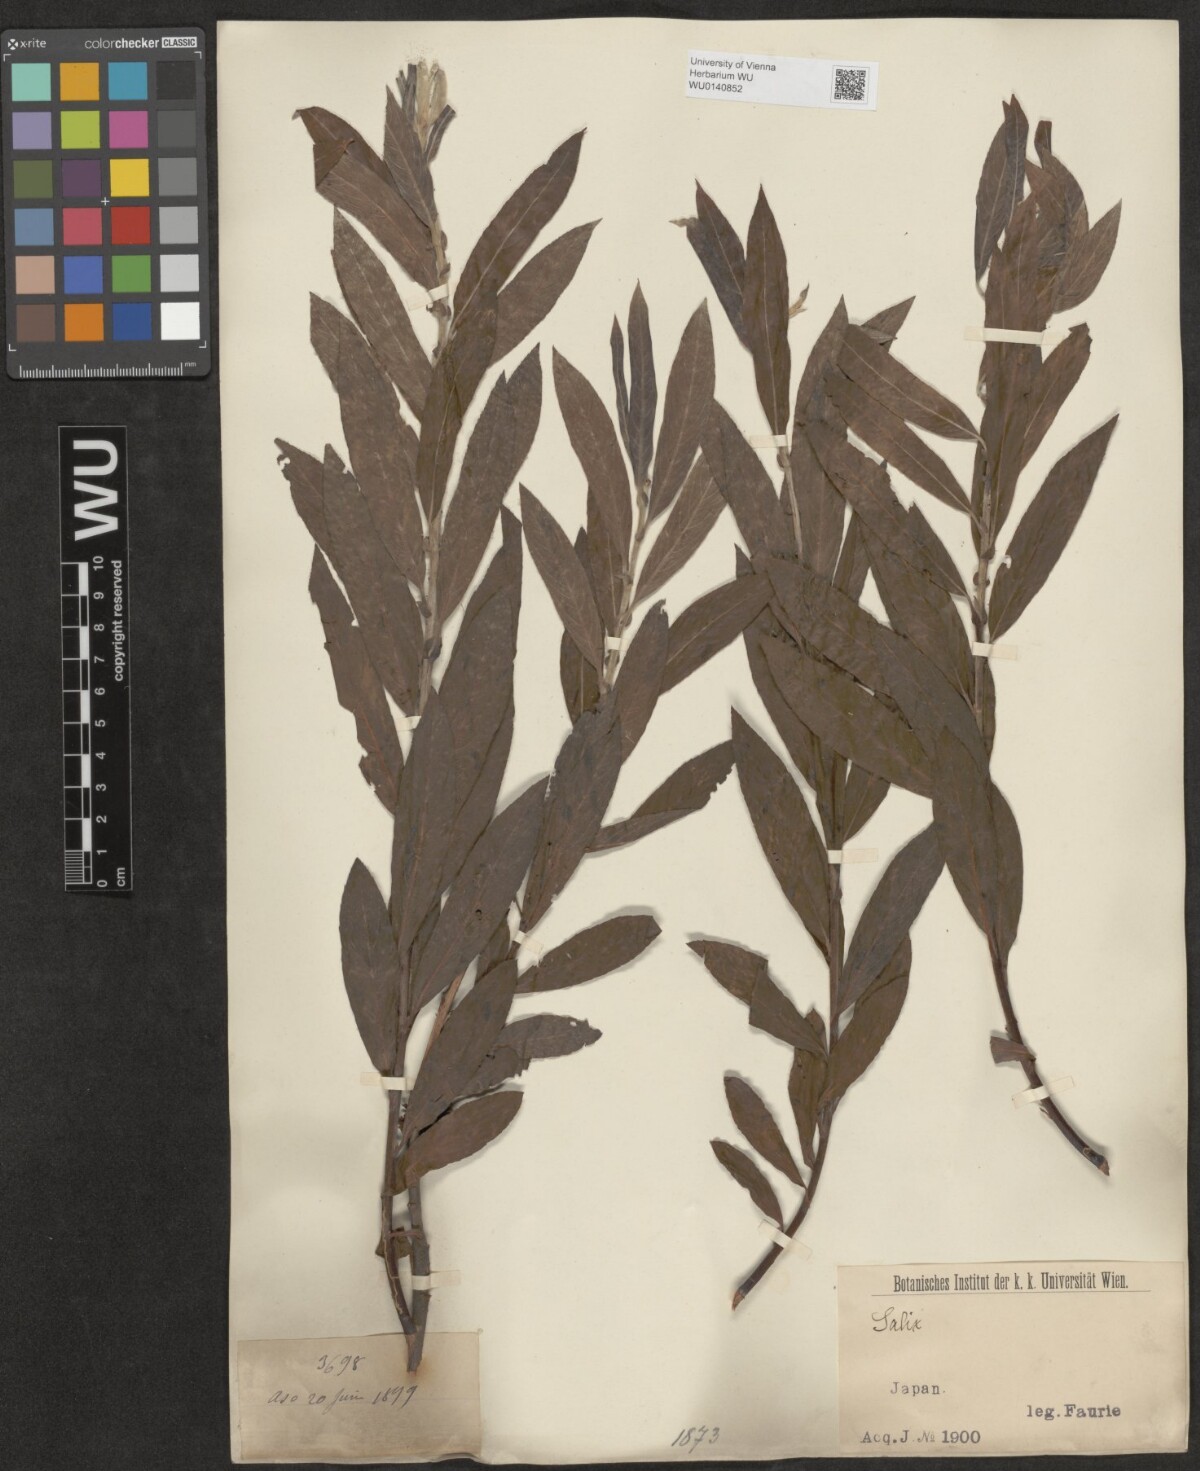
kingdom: Plantae
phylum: Tracheophyta
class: Magnoliopsida
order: Malpighiales
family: Salicaceae
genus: Salix
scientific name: Salix
